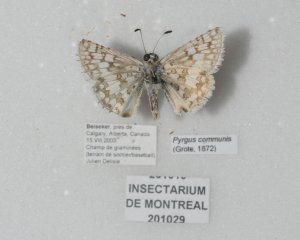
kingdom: Animalia
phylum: Arthropoda
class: Insecta
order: Lepidoptera
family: Hesperiidae
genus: Pyrgus
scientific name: Pyrgus communis
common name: Common Checkered-Skipper
